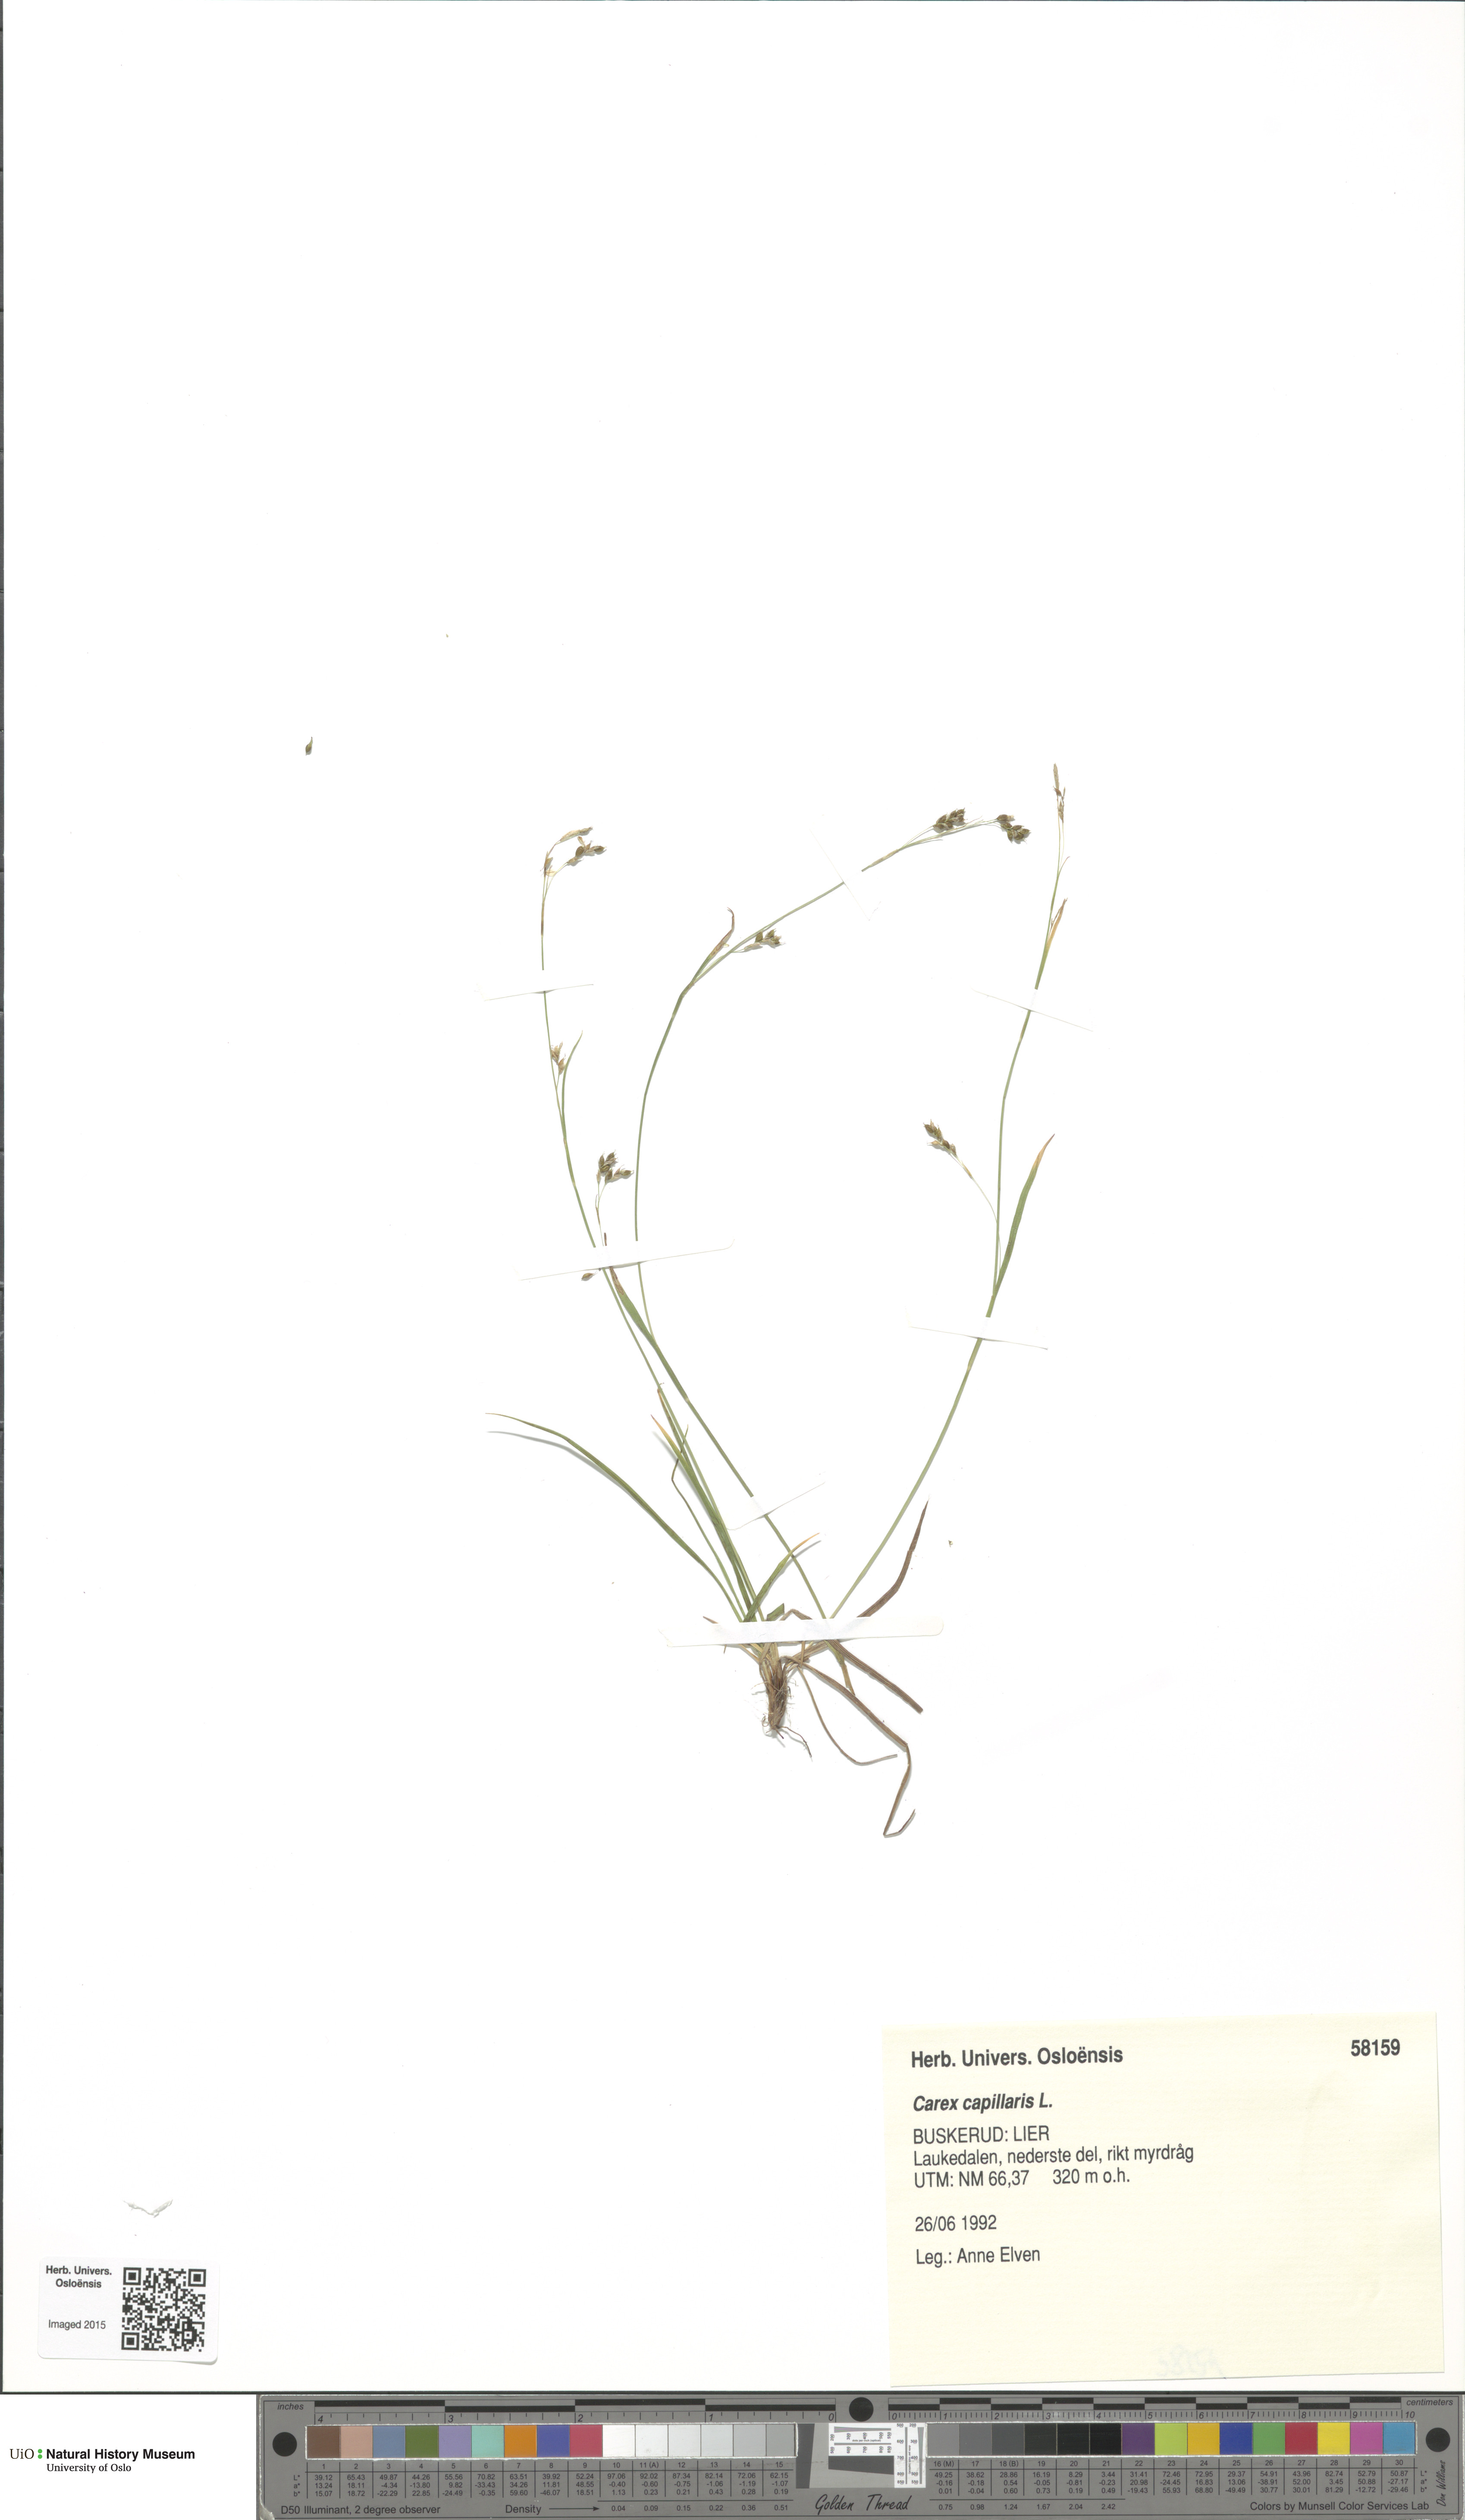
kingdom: Plantae
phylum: Tracheophyta
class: Liliopsida
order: Poales
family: Cyperaceae
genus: Carex
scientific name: Carex capillaris
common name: Hair sedge
